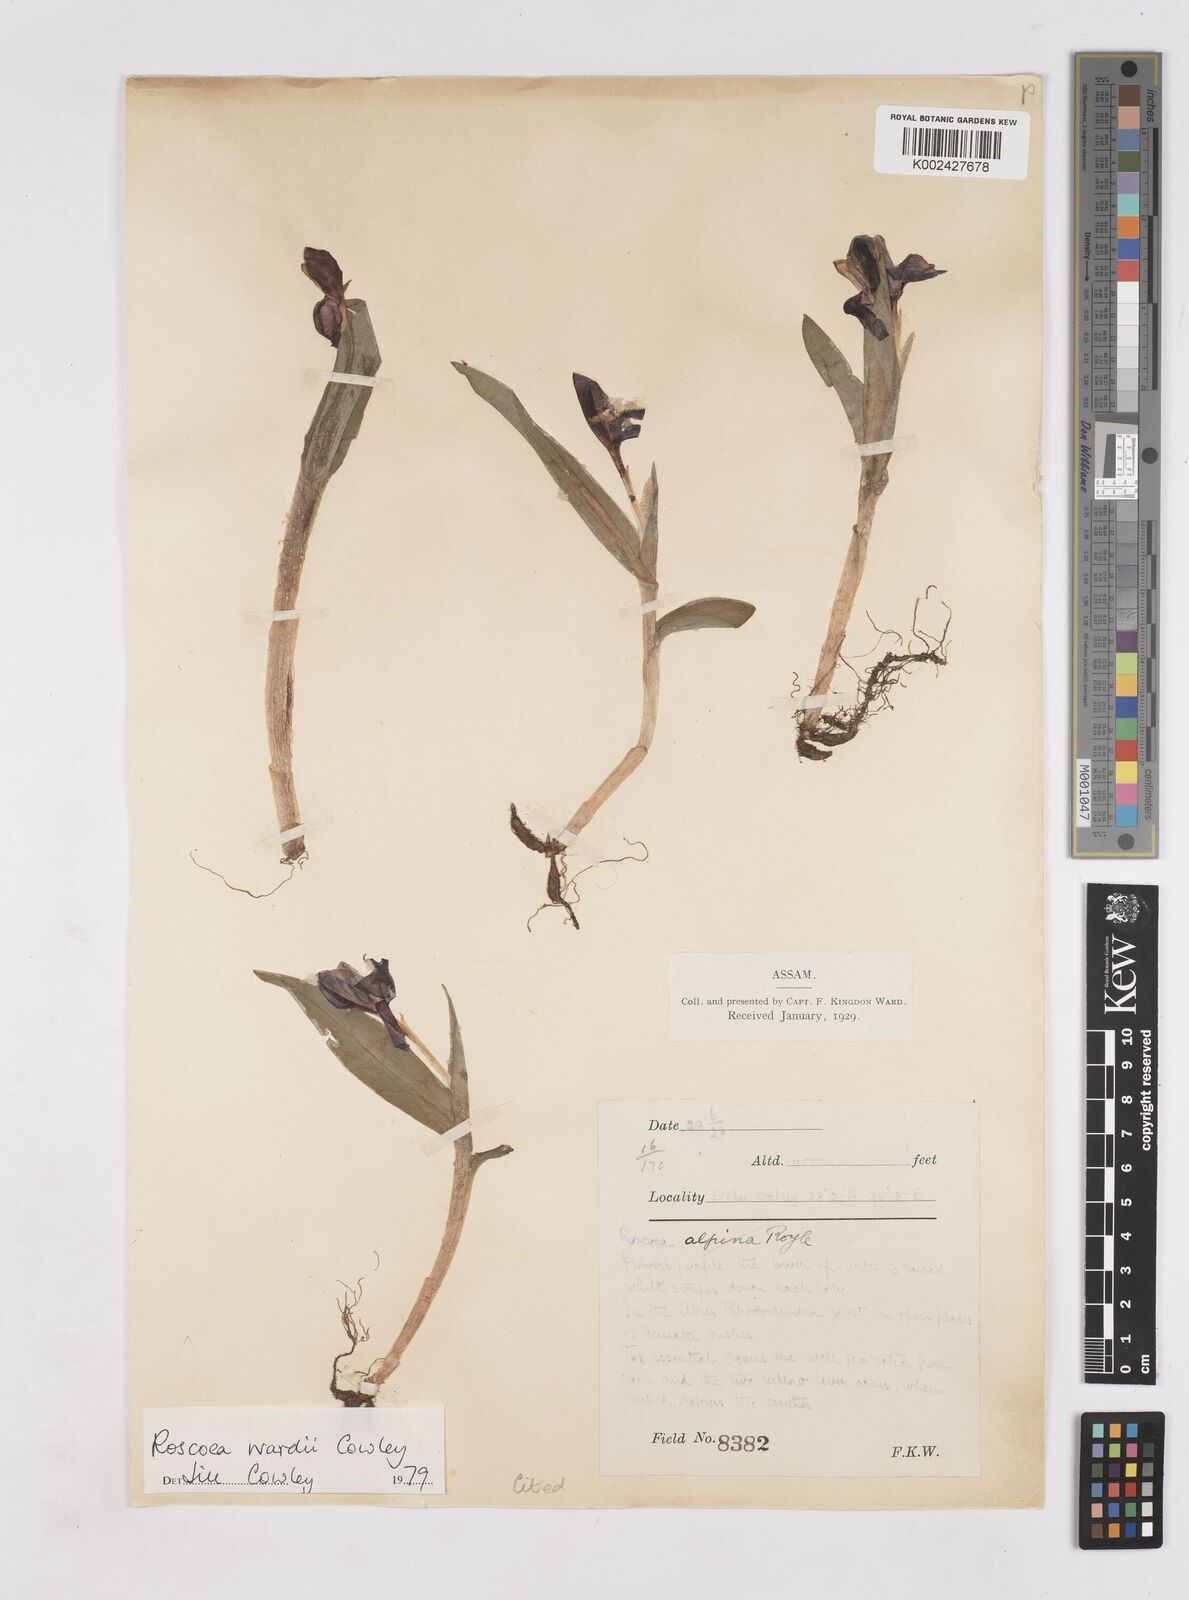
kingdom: Plantae
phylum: Tracheophyta
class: Liliopsida
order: Zingiberales
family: Zingiberaceae
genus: Roscoea
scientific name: Roscoea wardii
